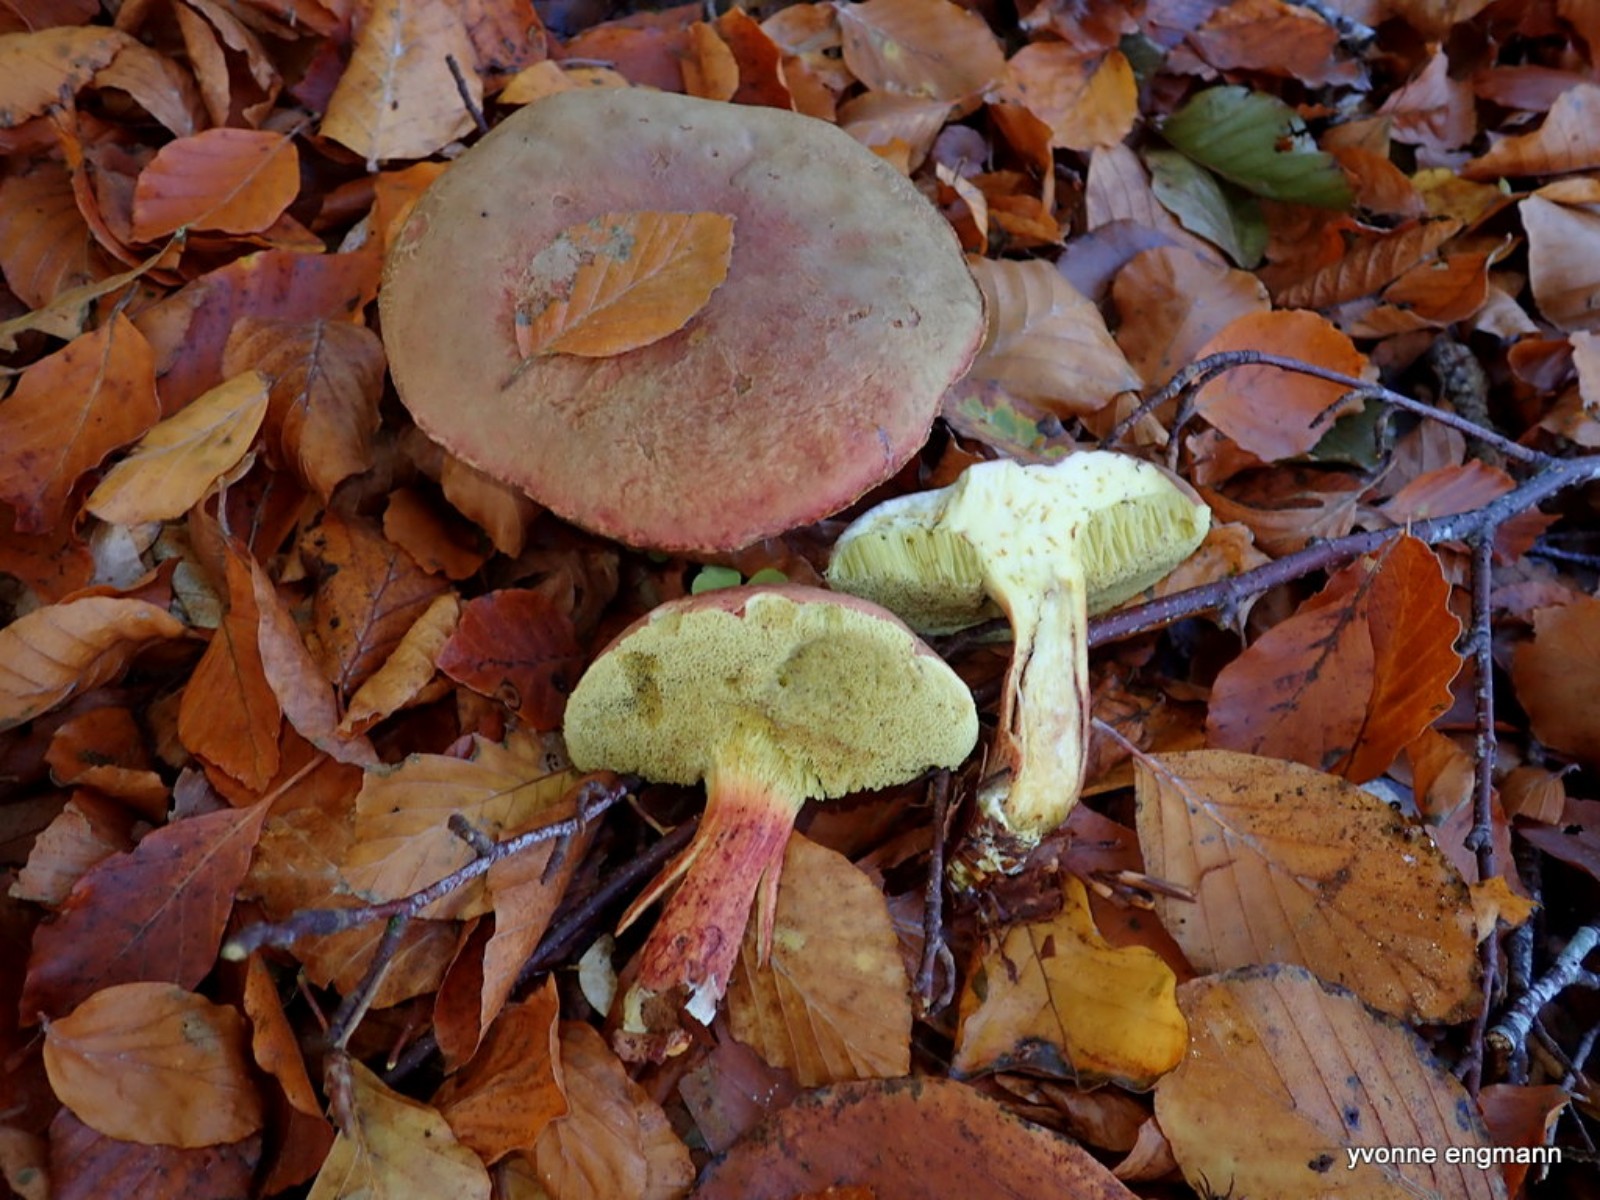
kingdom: Fungi
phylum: Basidiomycota
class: Agaricomycetes
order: Boletales
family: Boletaceae
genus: Xerocomellus
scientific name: Xerocomellus pruinatus
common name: dugget rørhat
